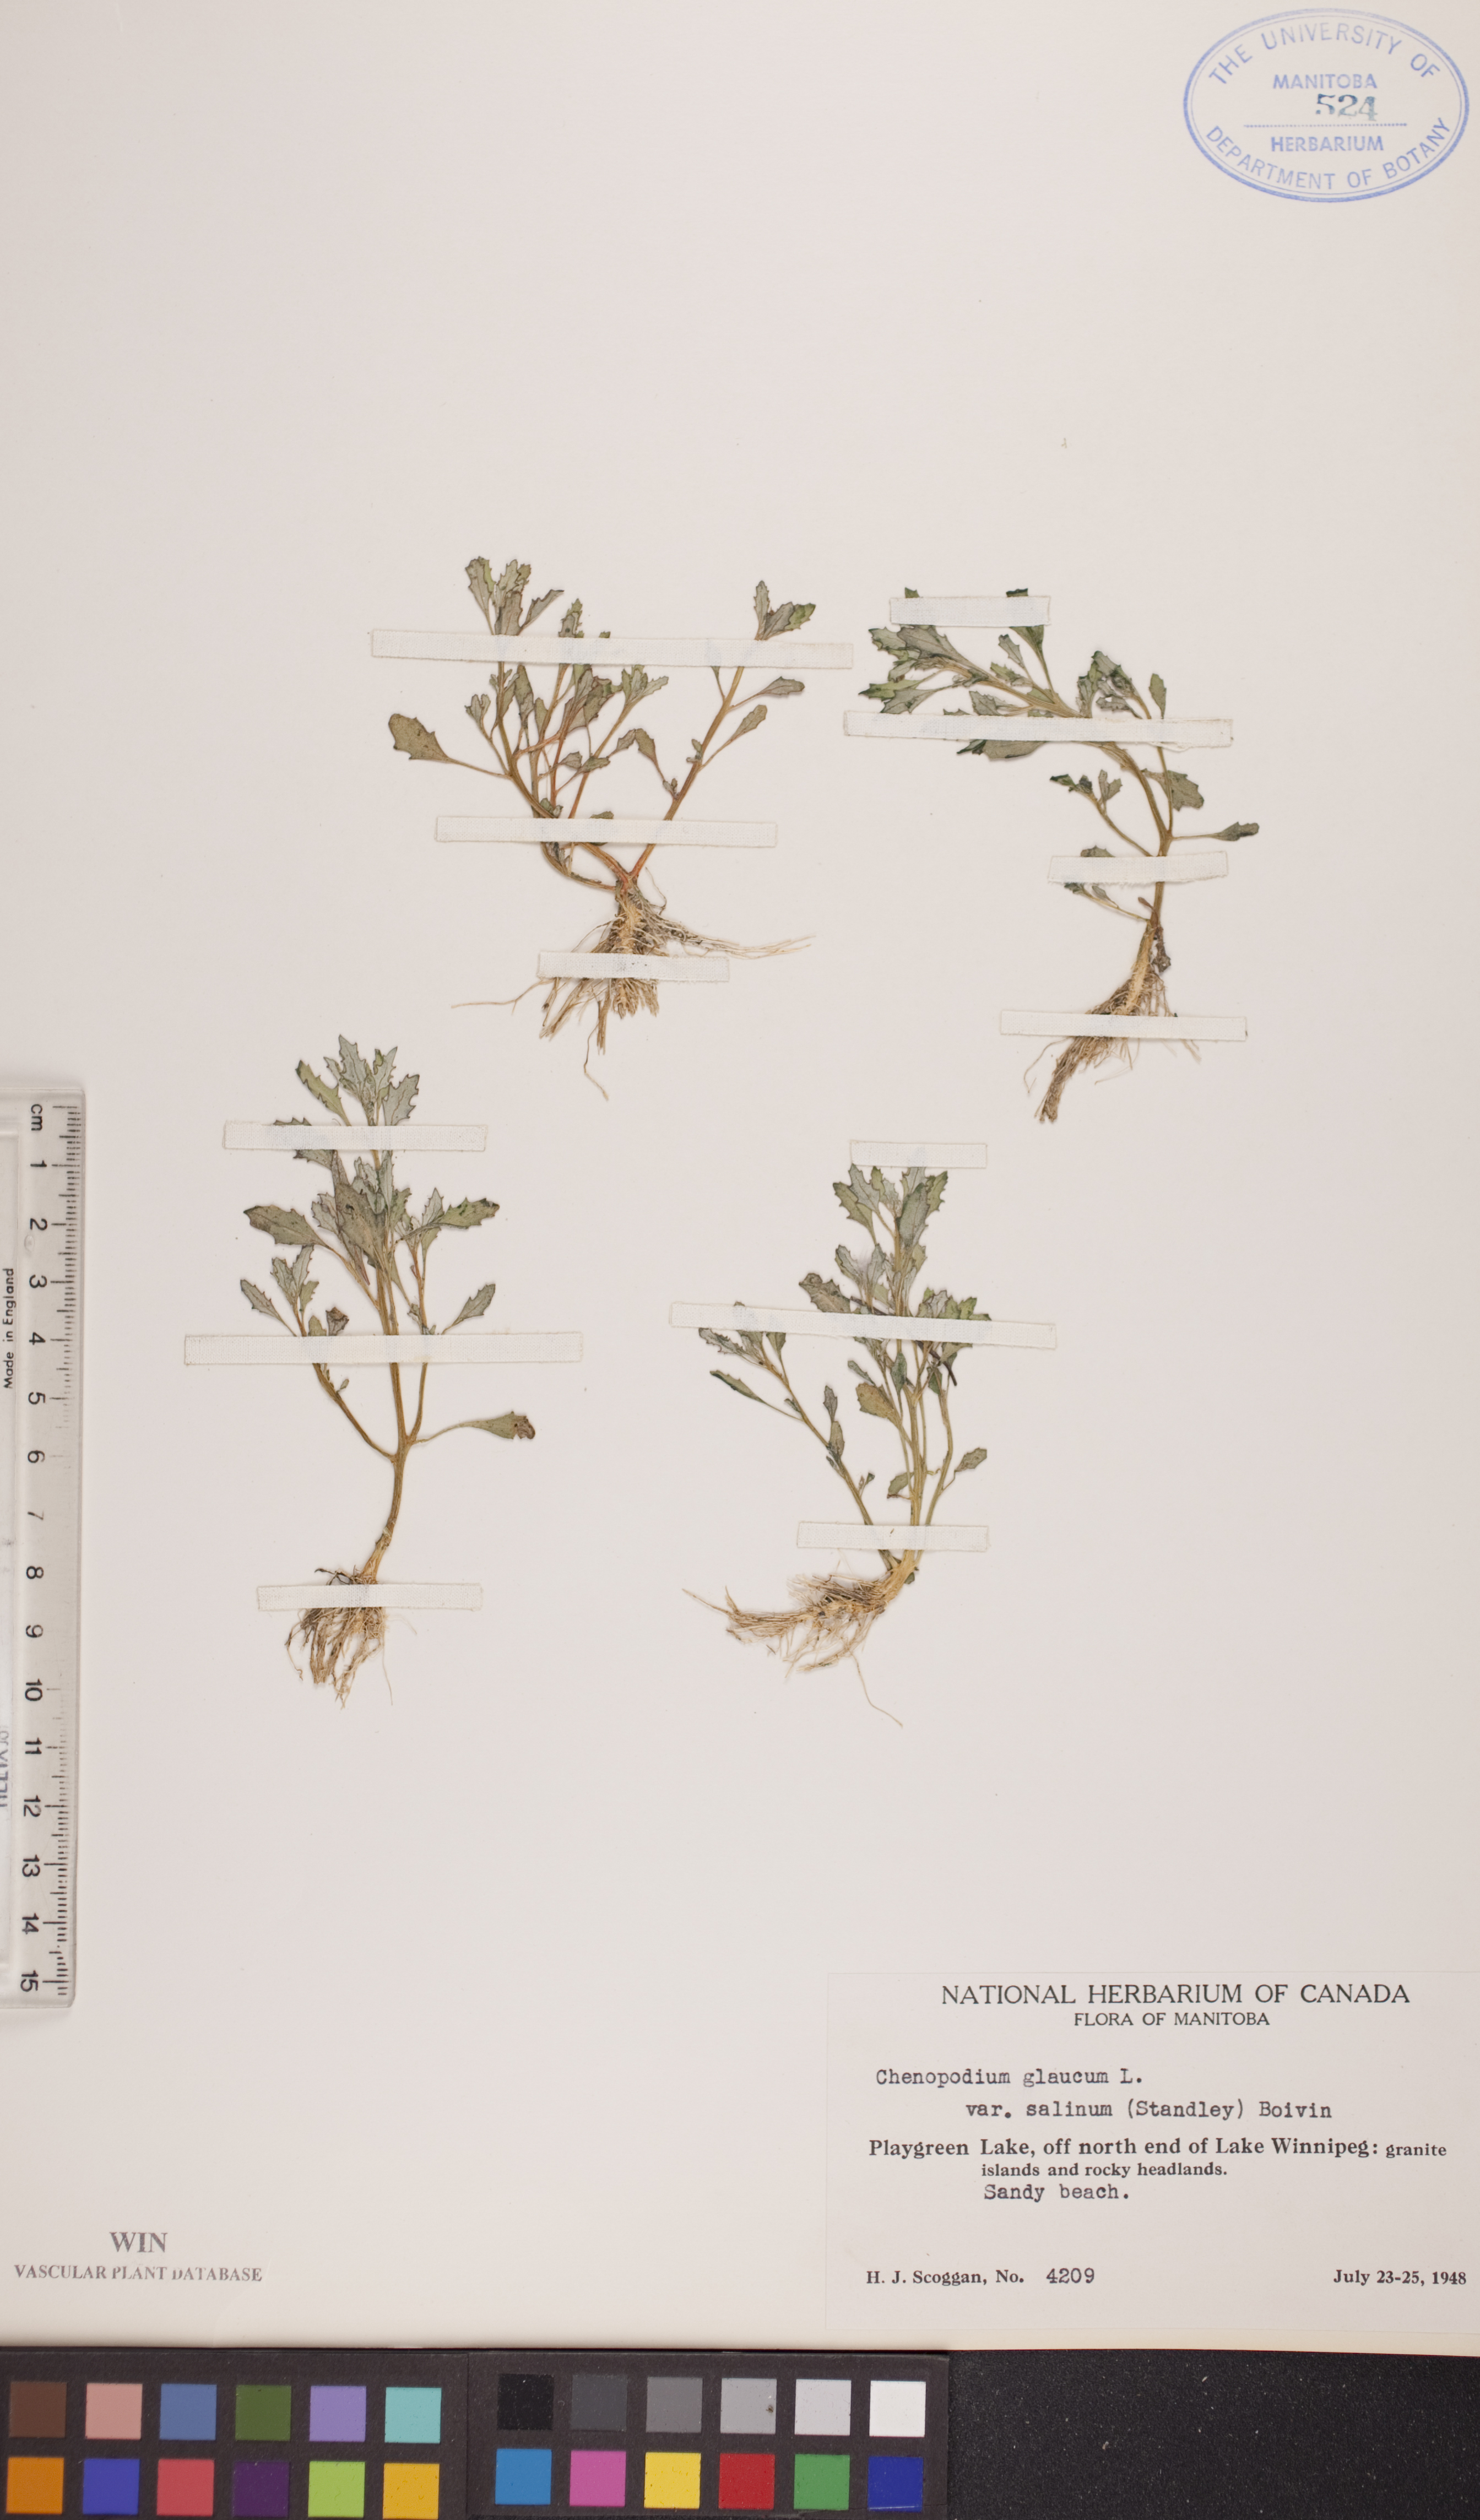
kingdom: Plantae
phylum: Tracheophyta
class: Magnoliopsida
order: Caryophyllales
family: Amaranthaceae
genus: Oxybasis
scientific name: Oxybasis salina
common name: Rocky mountain goosefoot
